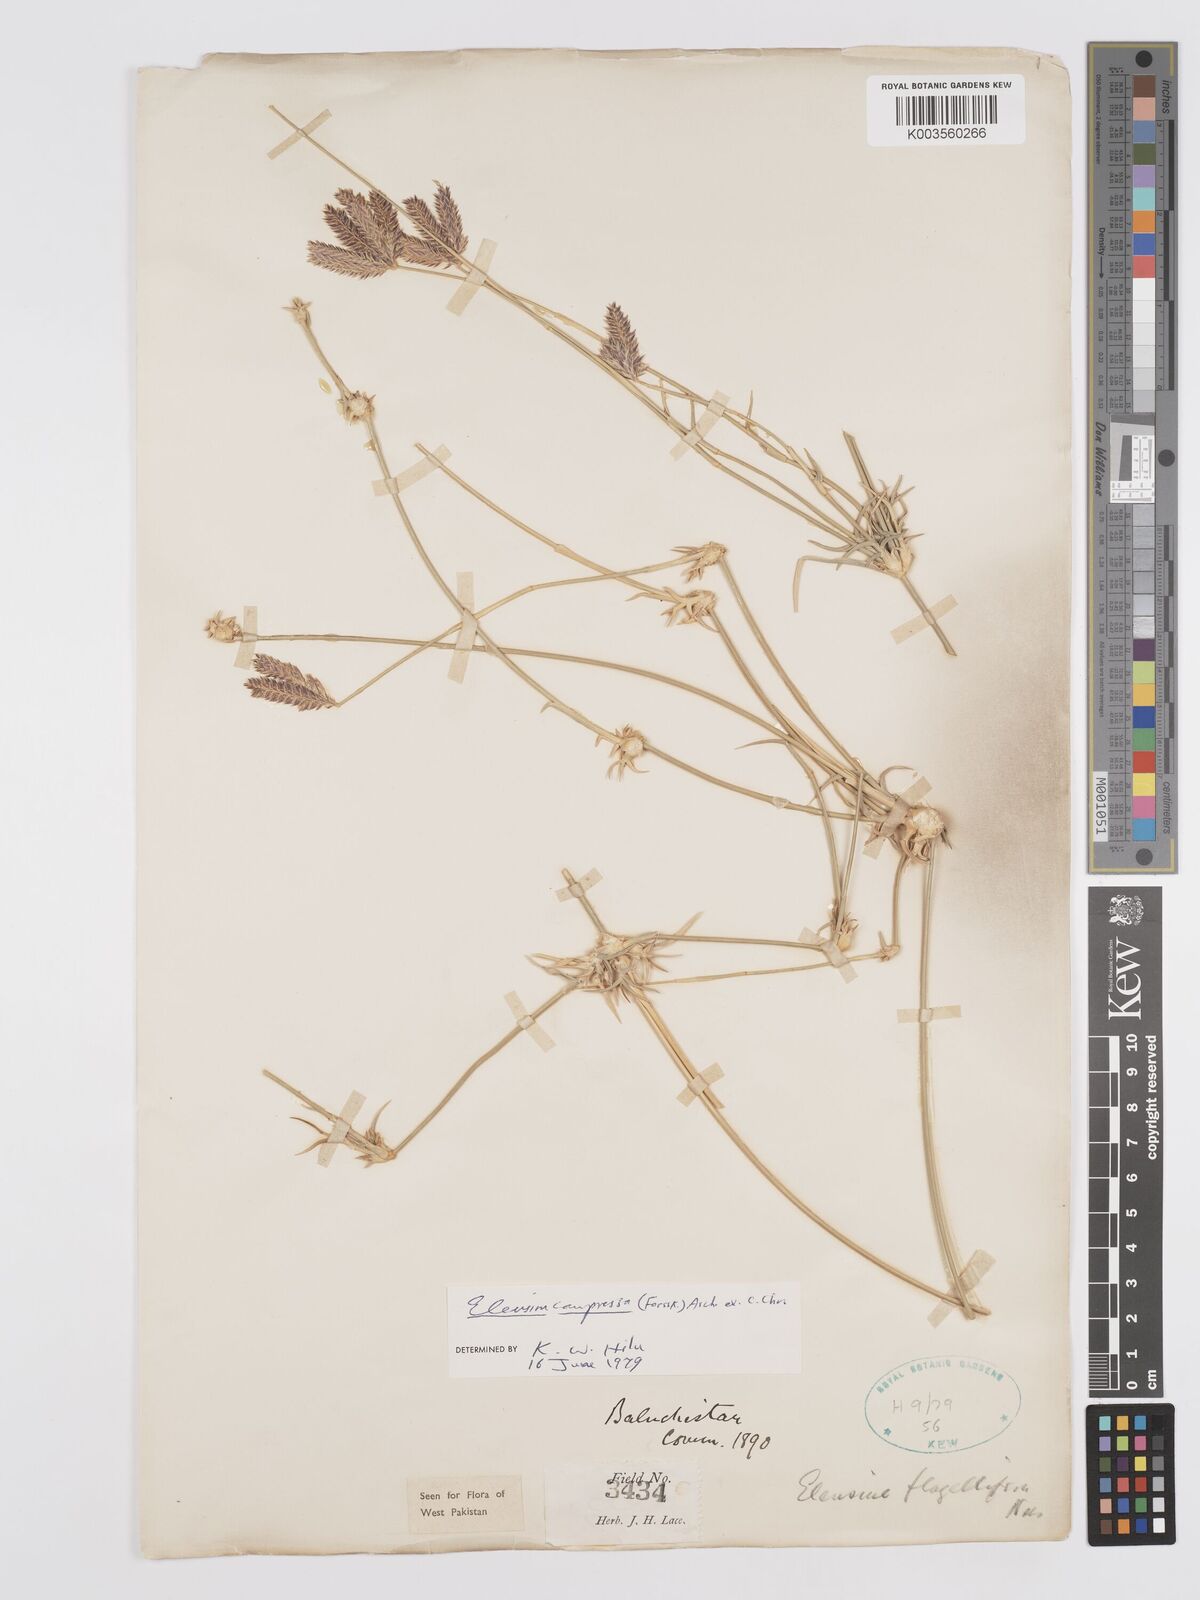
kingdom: Plantae
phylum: Tracheophyta
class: Liliopsida
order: Poales
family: Poaceae
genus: Chloris
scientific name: Chloris flagellifera
